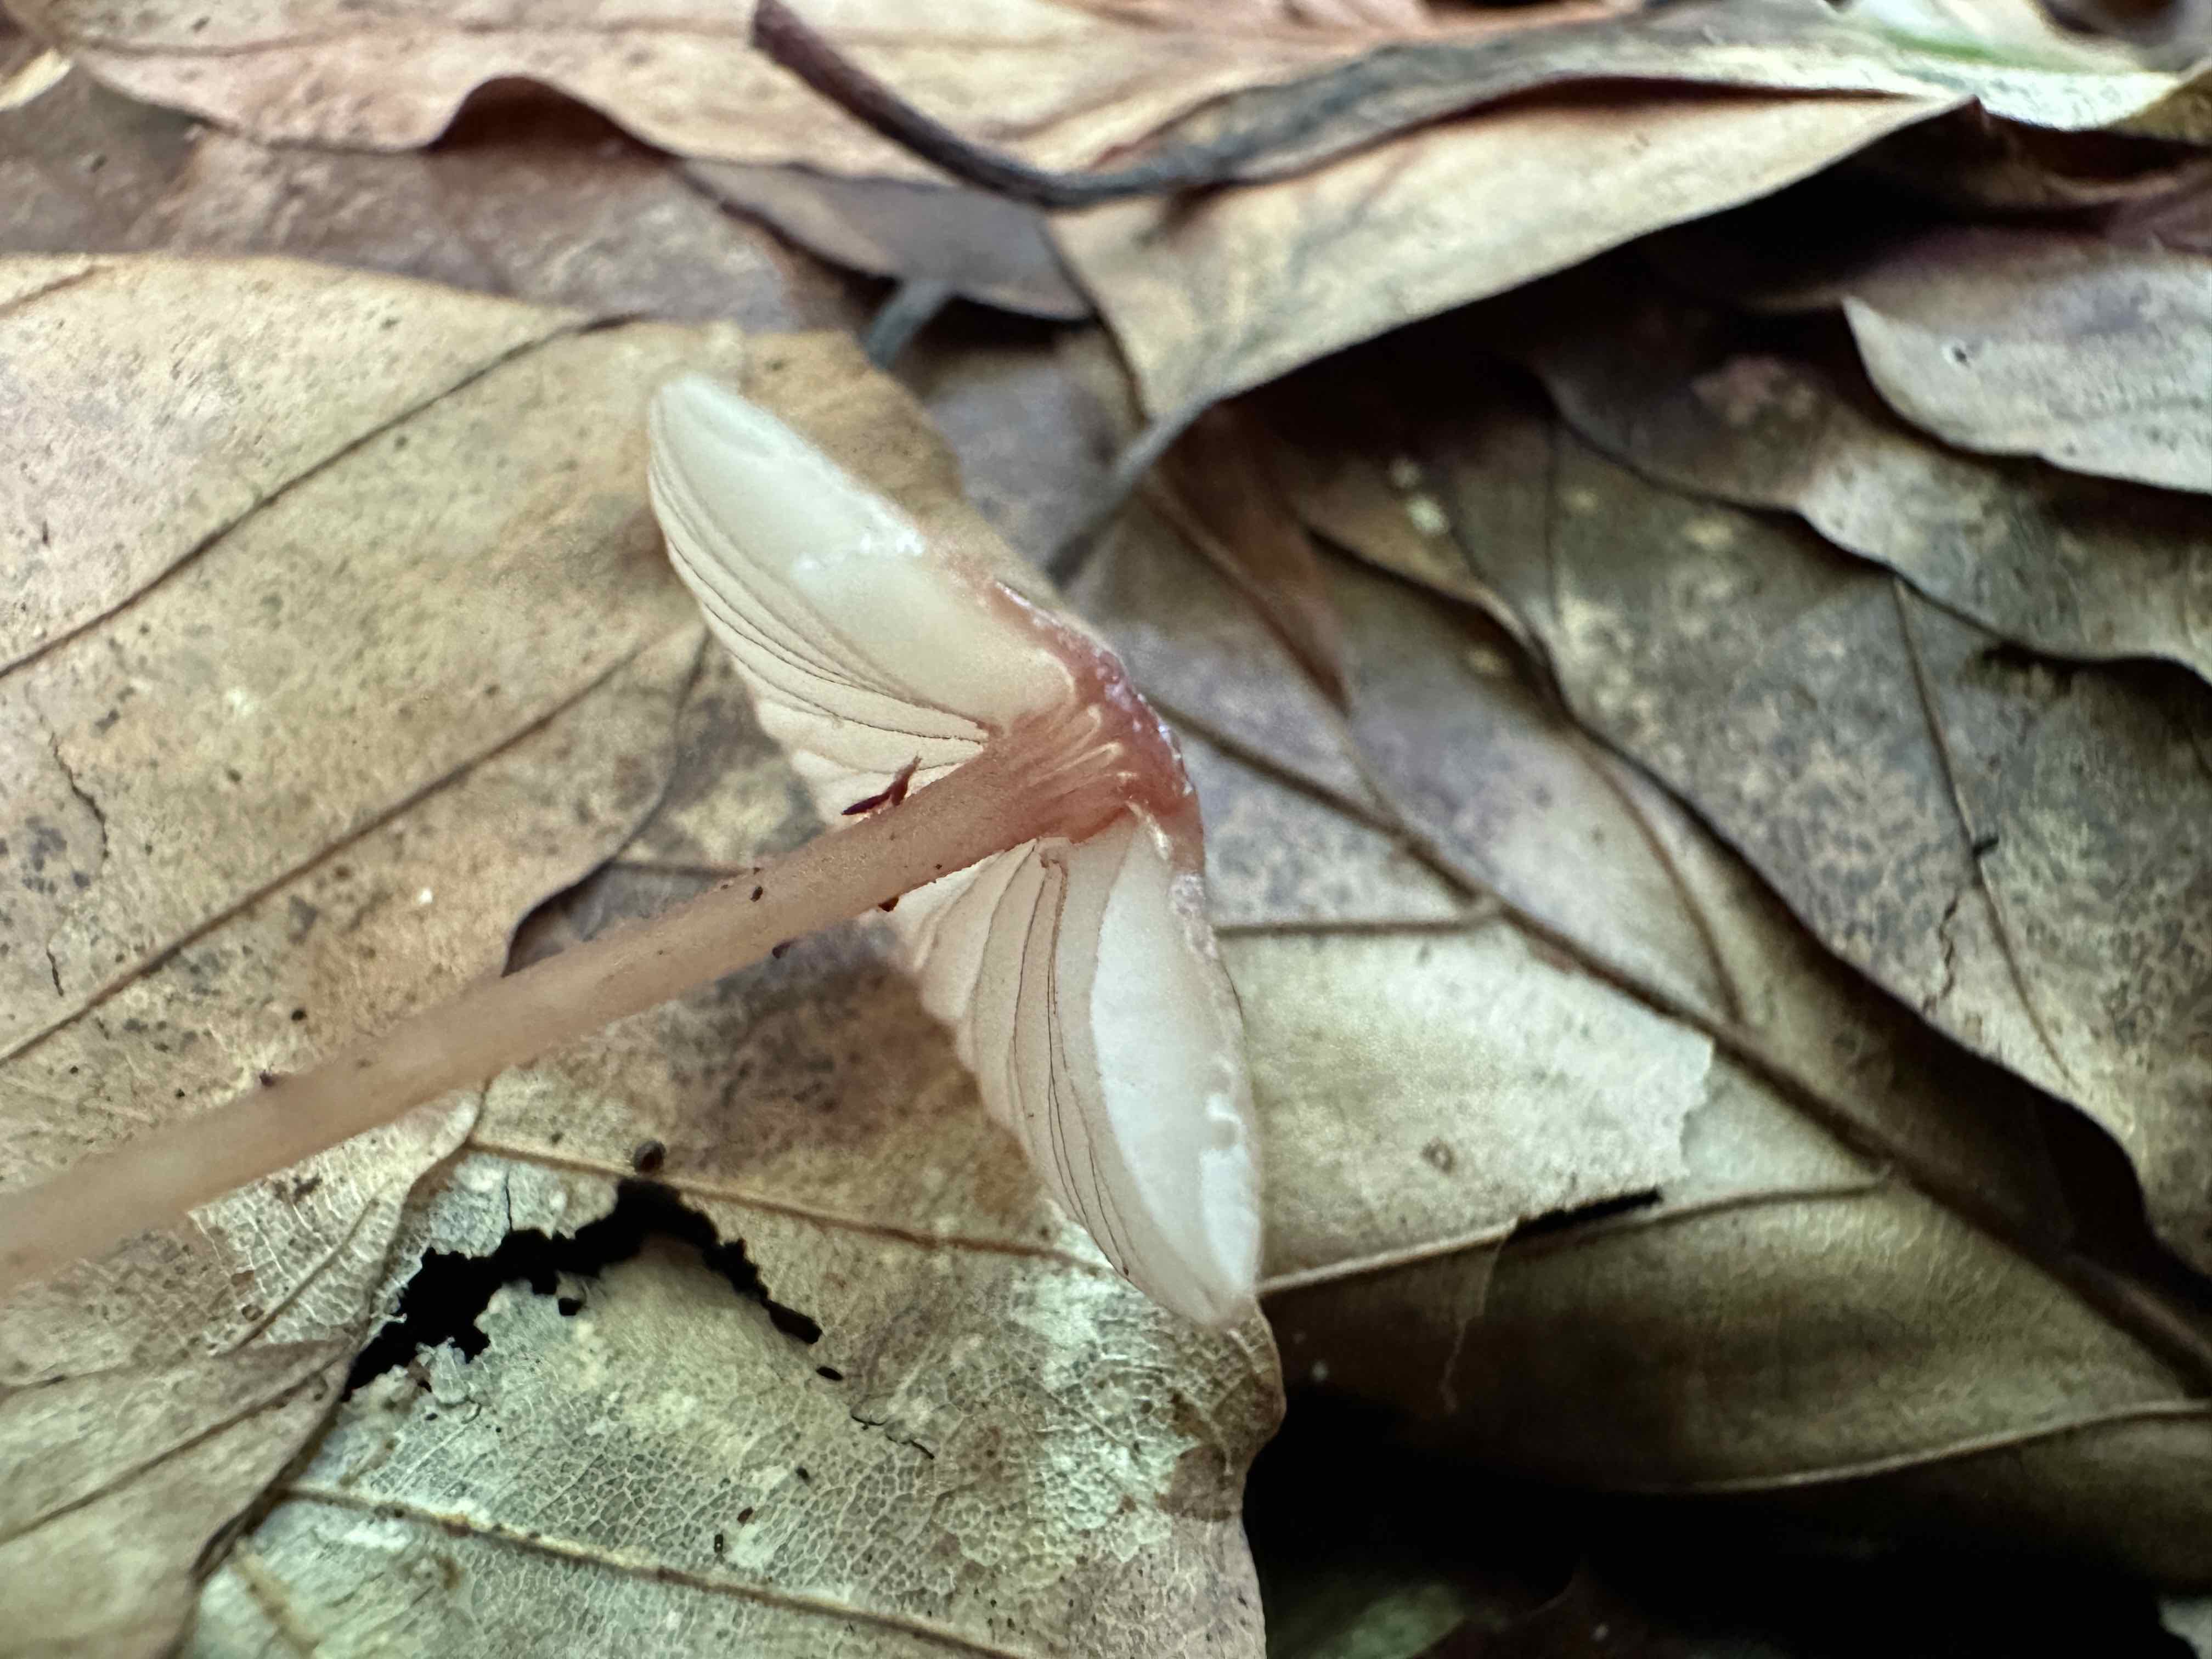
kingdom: Fungi
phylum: Basidiomycota
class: Agaricomycetes
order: Agaricales
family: Mycenaceae
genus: Mycena
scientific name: Mycena sanguinolenta
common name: rødmælket huesvamp
